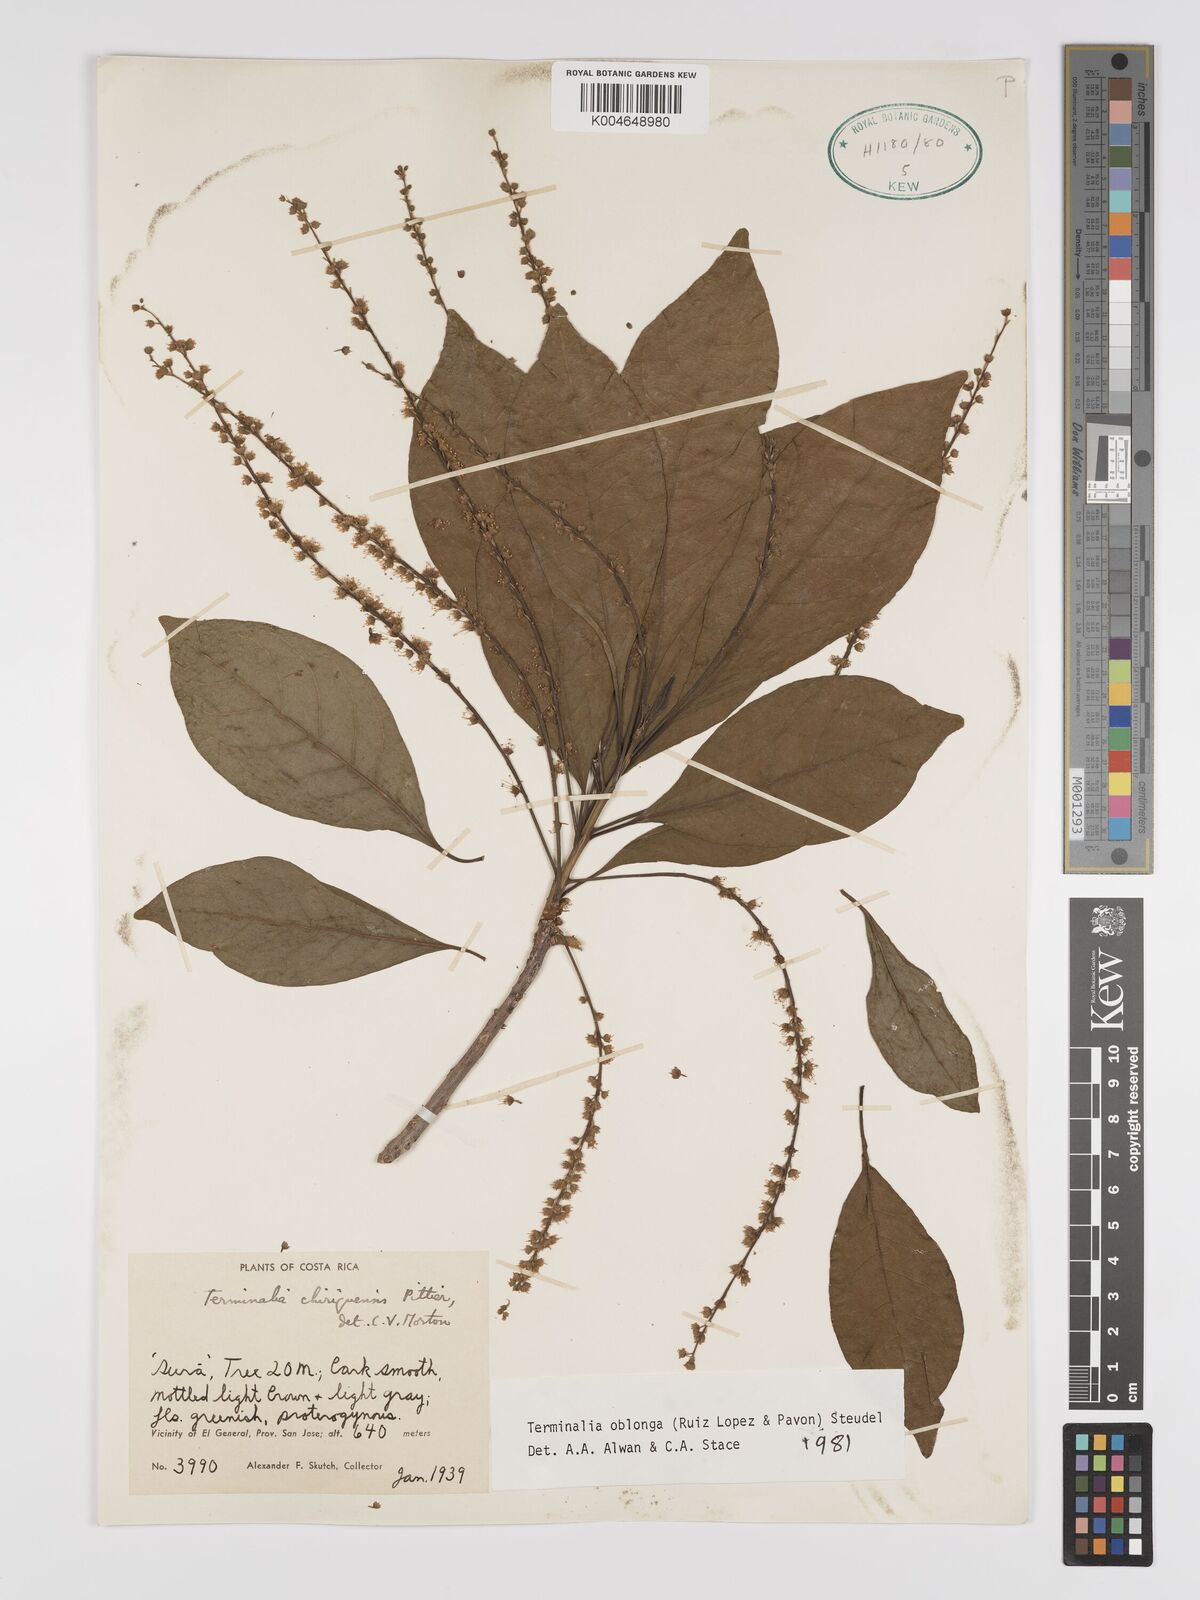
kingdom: Plantae
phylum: Tracheophyta
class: Magnoliopsida
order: Myrtales
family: Combretaceae
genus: Terminalia
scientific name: Terminalia oblonga
